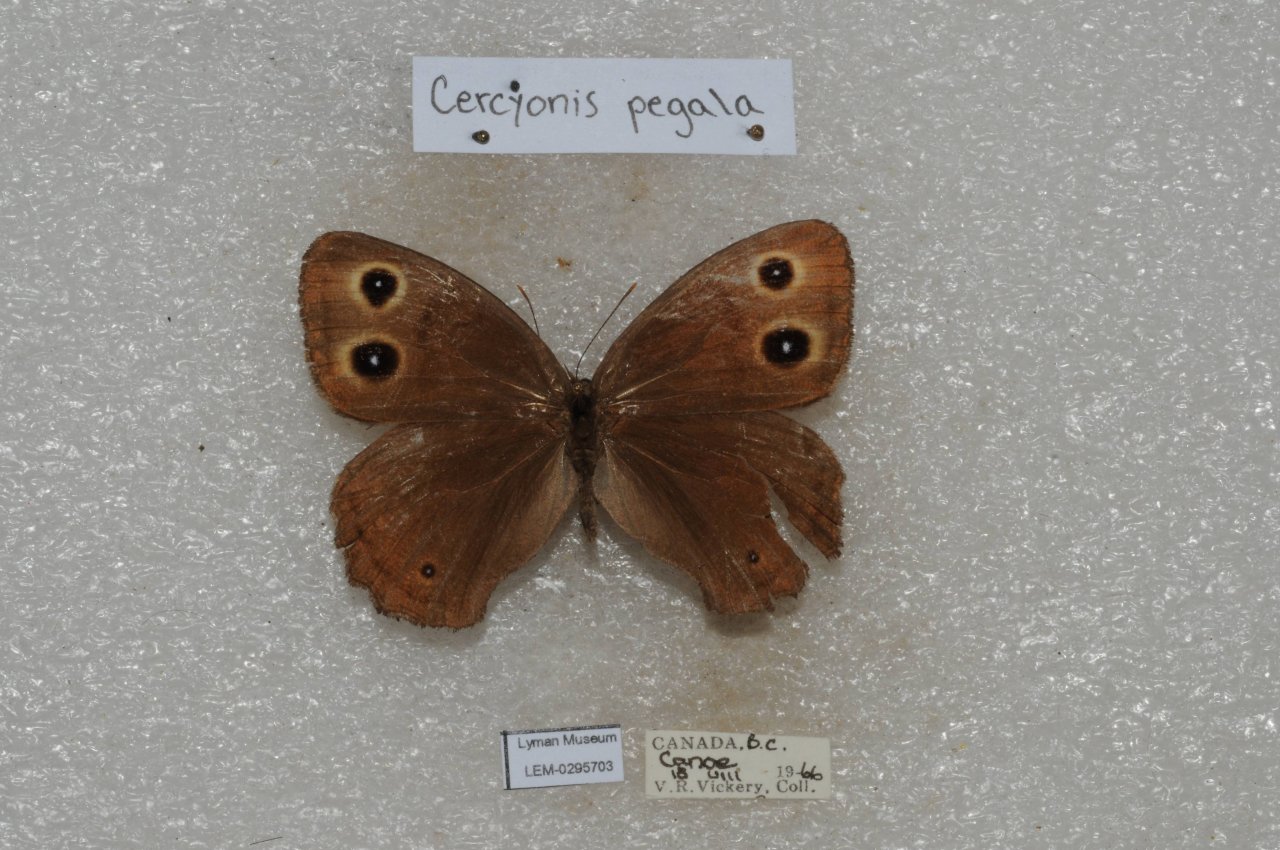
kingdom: Animalia
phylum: Arthropoda
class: Insecta
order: Lepidoptera
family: Nymphalidae
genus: Cercyonis
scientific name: Cercyonis pegala
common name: Common Wood-Nymph
